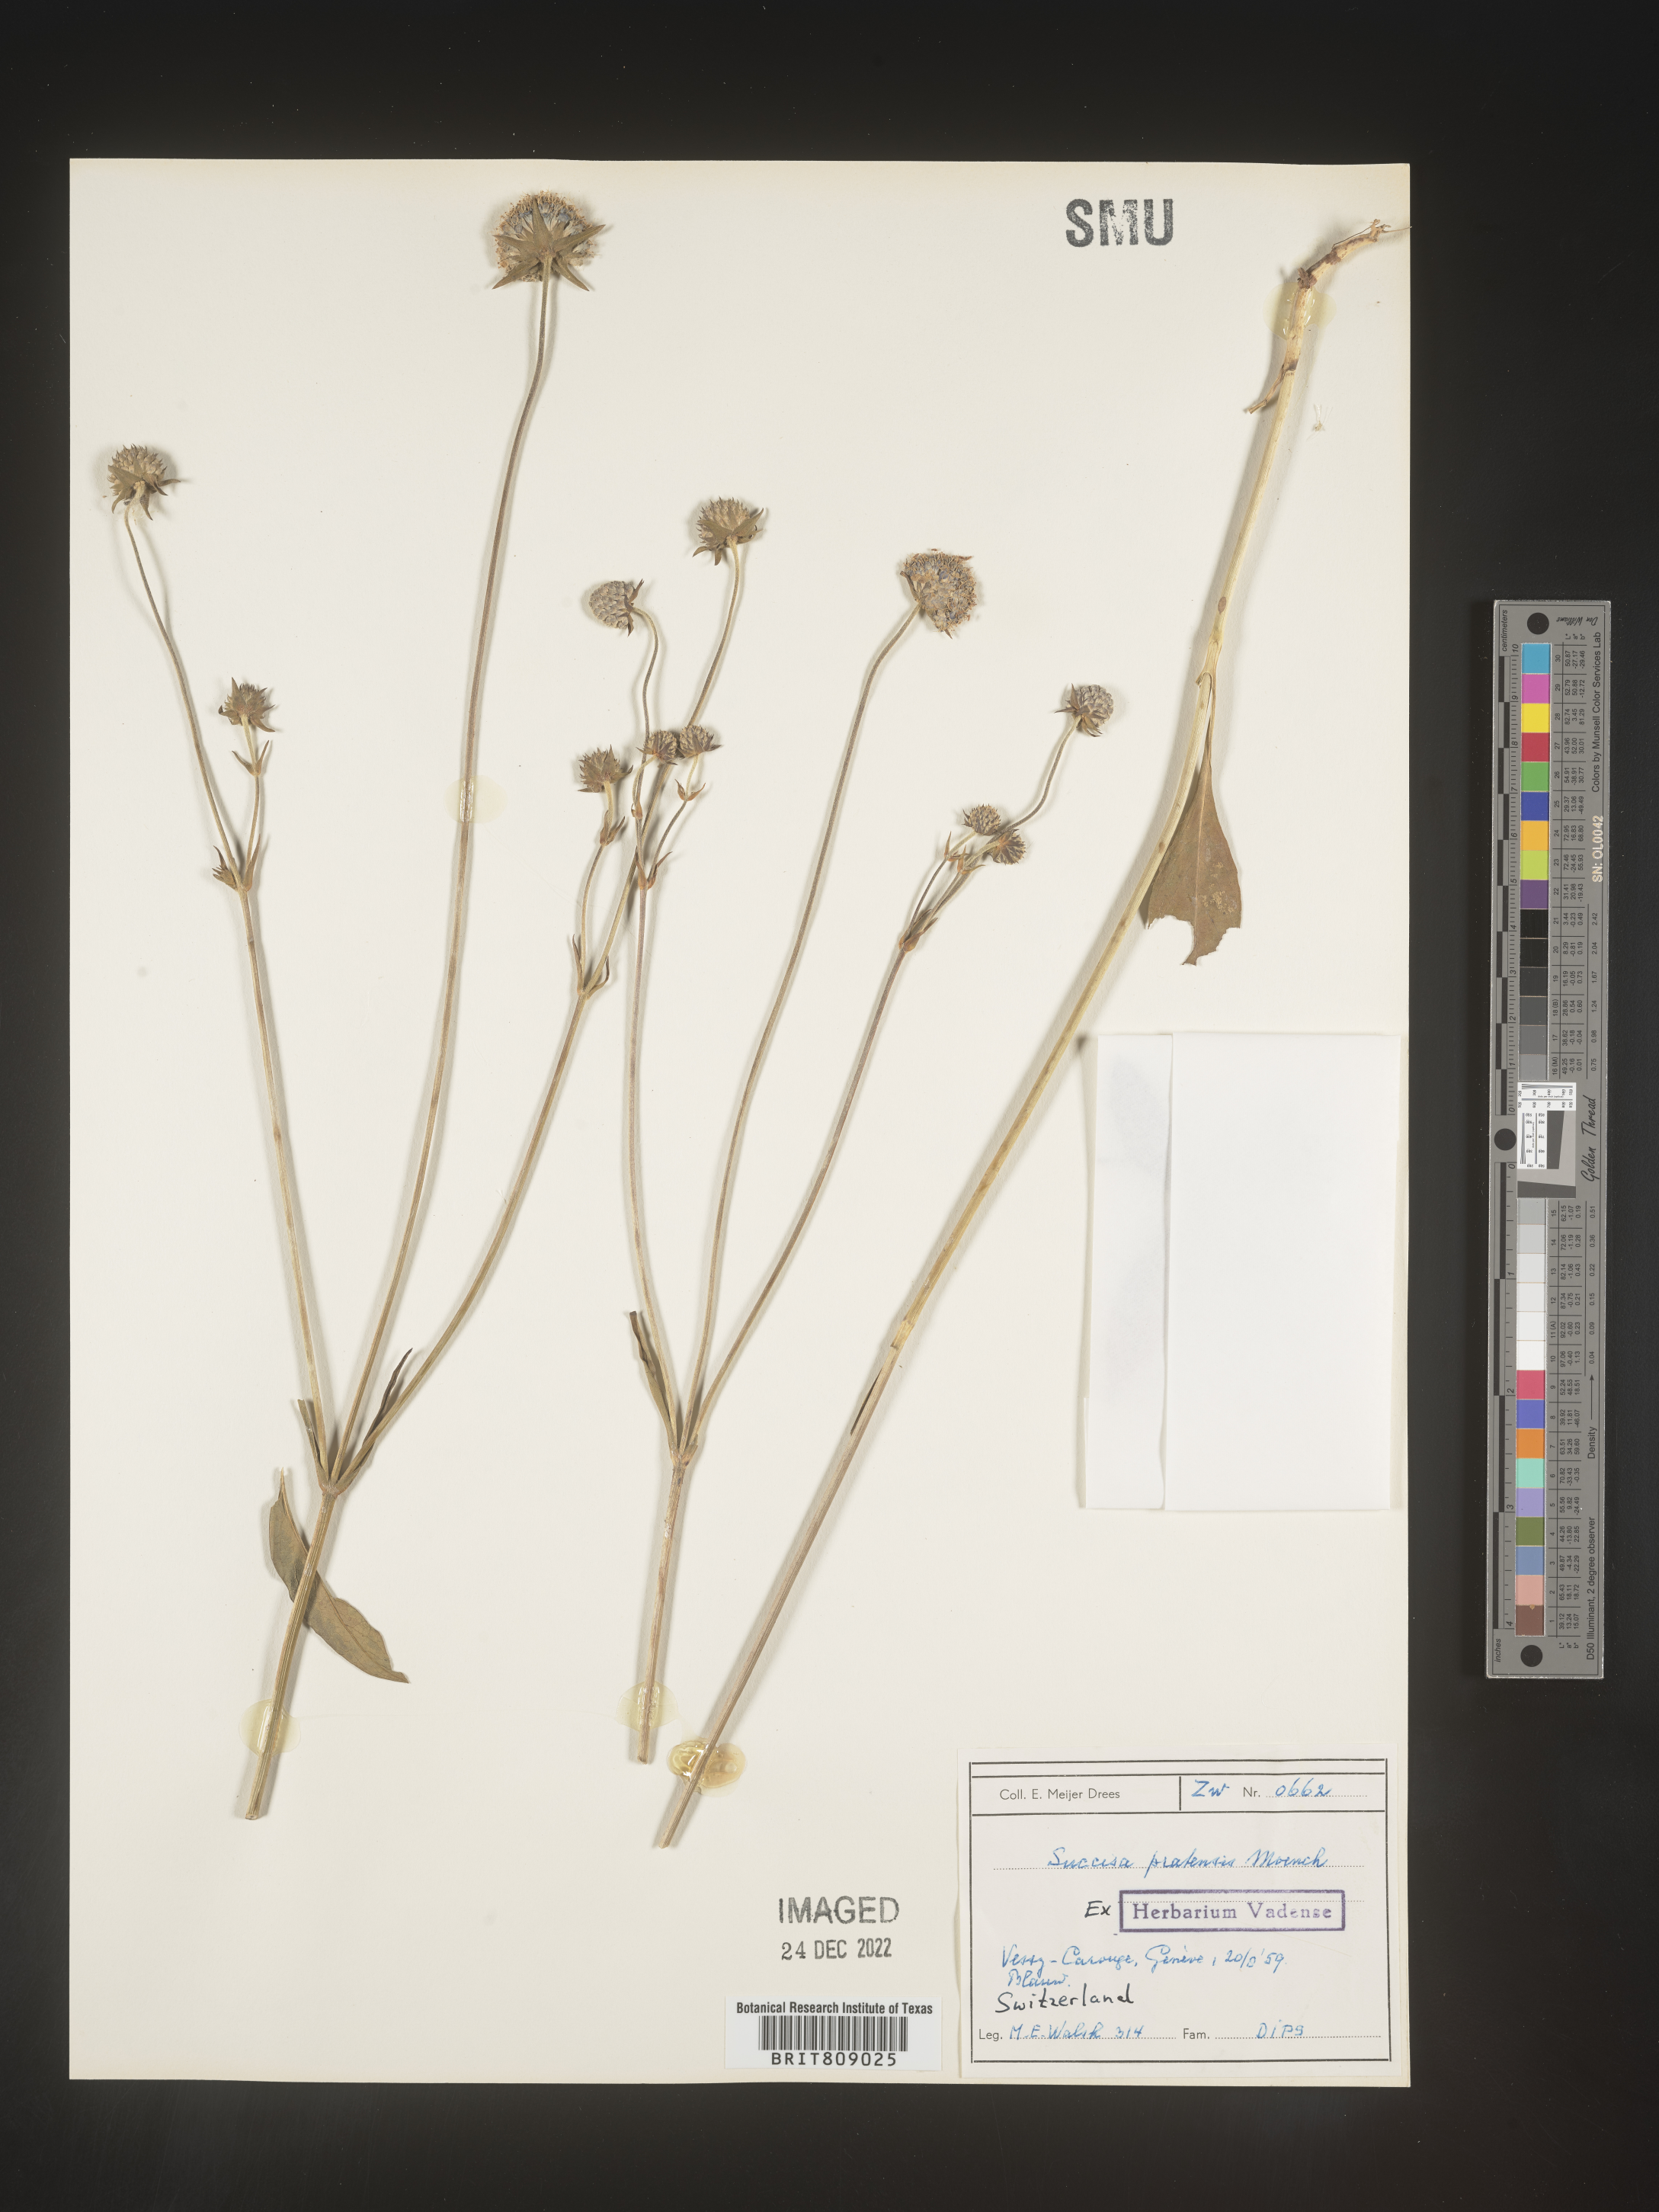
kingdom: Plantae
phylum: Tracheophyta
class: Magnoliopsida
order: Dipsacales
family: Caprifoliaceae
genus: Succisa
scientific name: Succisa
